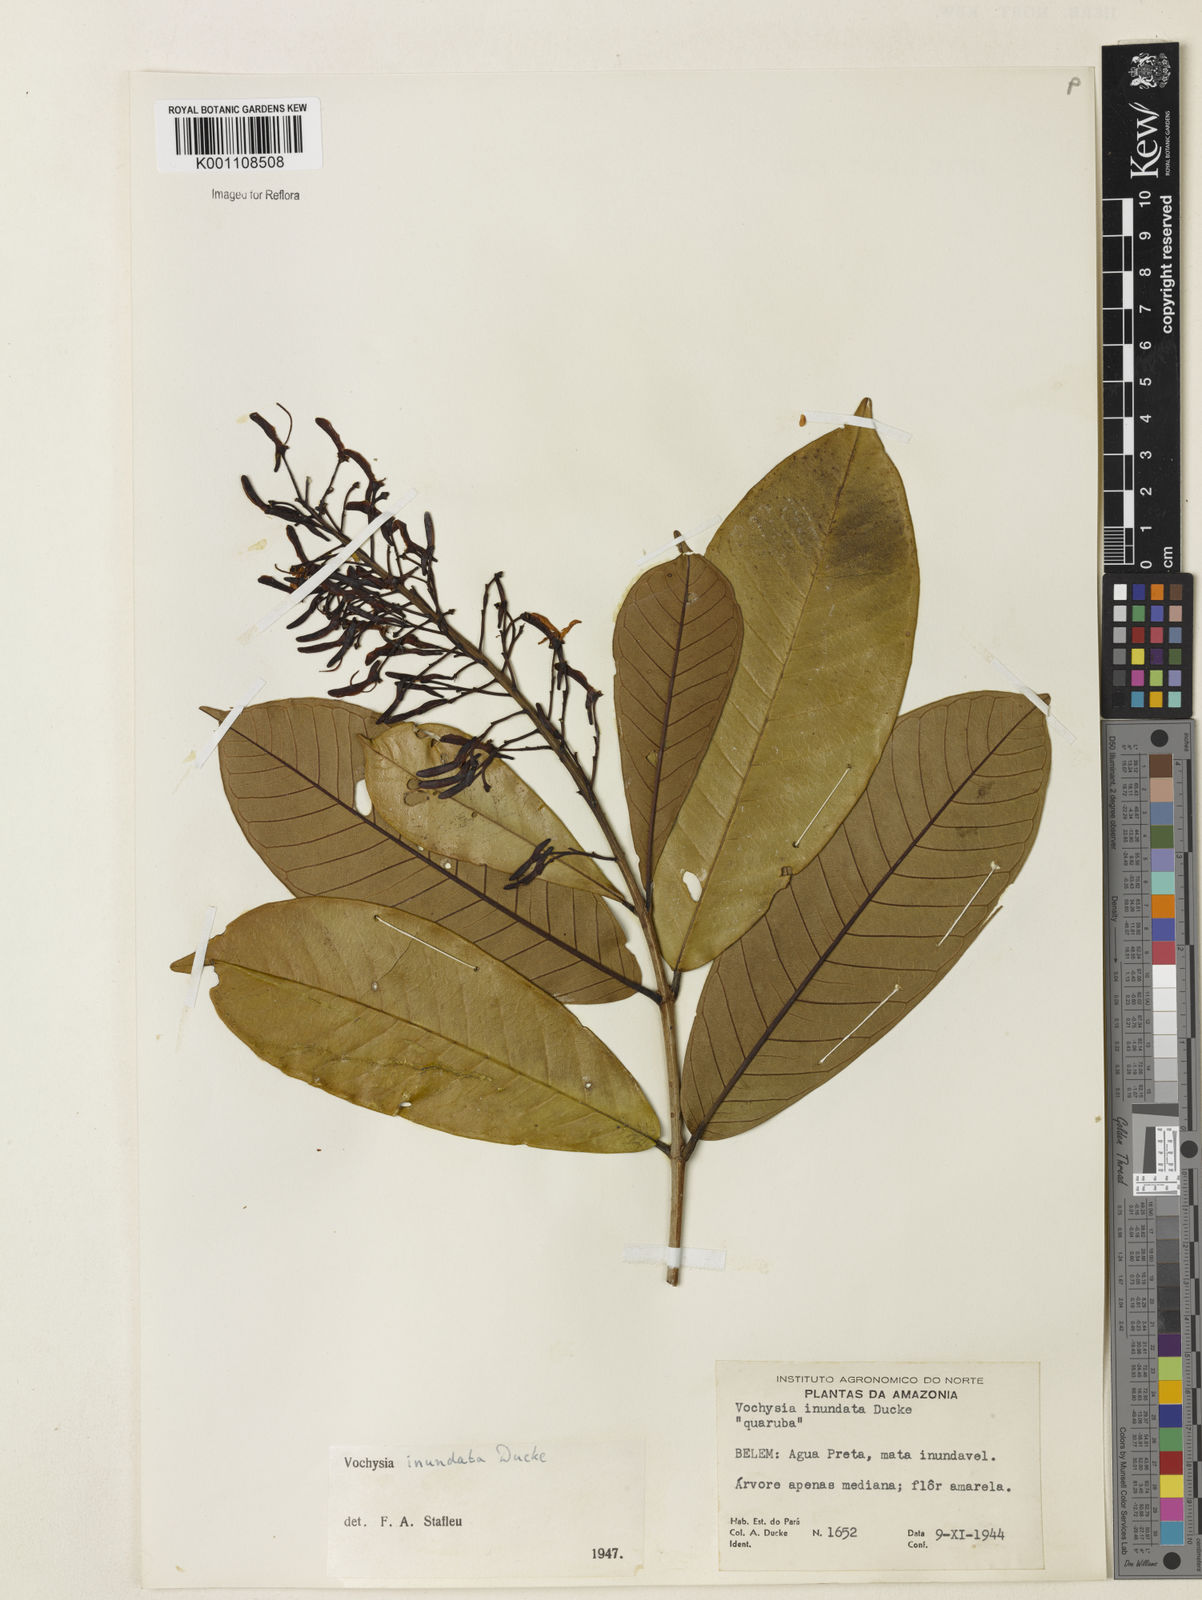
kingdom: Plantae
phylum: Tracheophyta
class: Magnoliopsida
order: Myrtales
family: Vochysiaceae
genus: Vochysia
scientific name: Vochysia inundata
